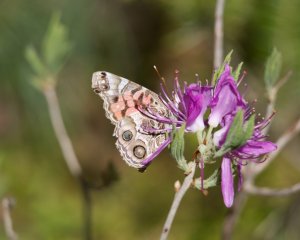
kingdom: Animalia
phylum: Arthropoda
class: Insecta
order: Lepidoptera
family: Nymphalidae
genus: Vanessa
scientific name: Vanessa virginiensis
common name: American Lady
